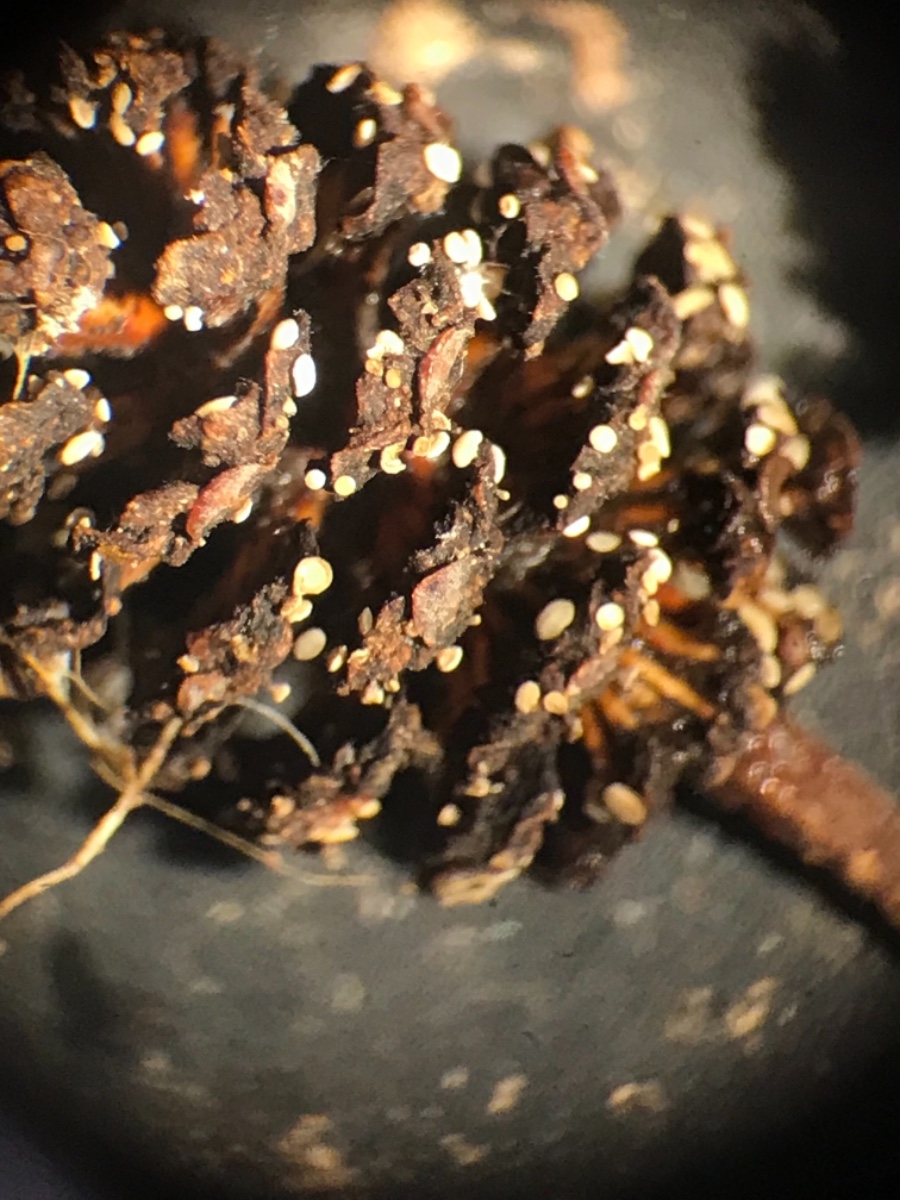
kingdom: Fungi
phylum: Ascomycota
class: Leotiomycetes
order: Helotiales
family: Pezizellaceae
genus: Calycina
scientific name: Calycina alniella
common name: ellekogle-stilkskive
